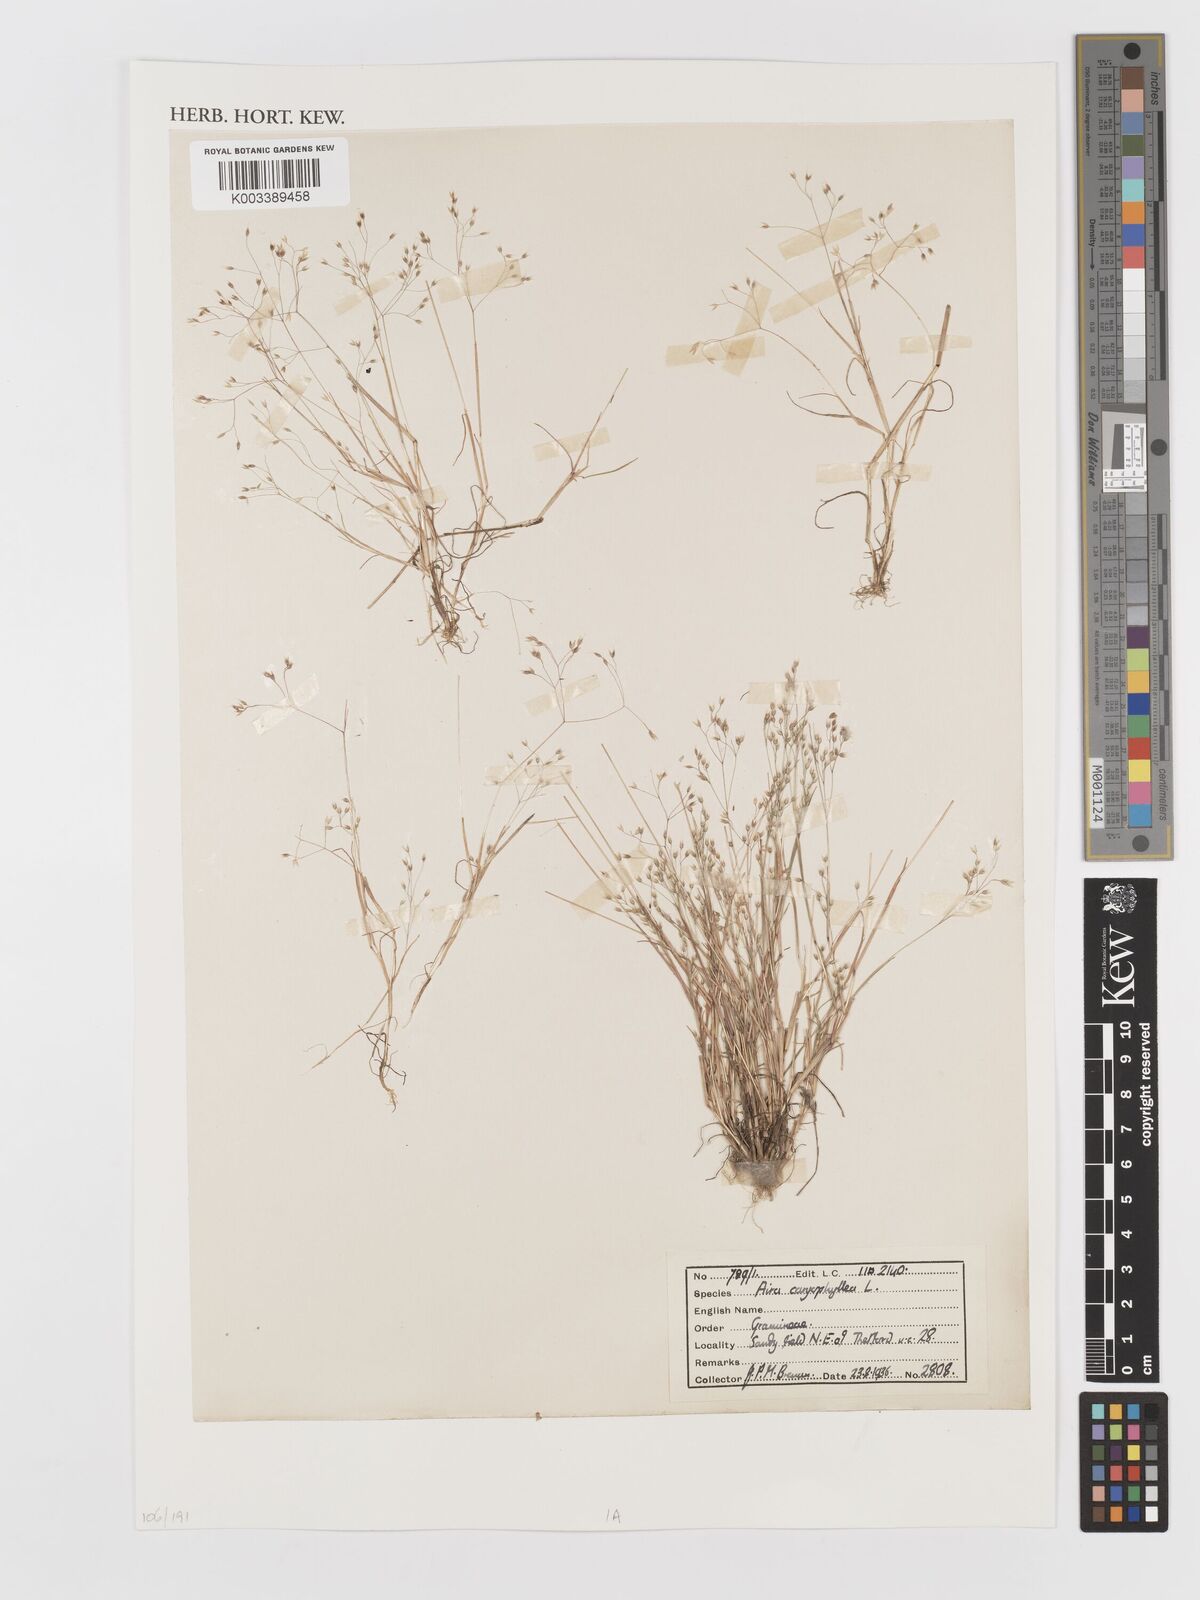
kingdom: Plantae
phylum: Tracheophyta
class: Liliopsida
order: Poales
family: Poaceae
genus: Aira
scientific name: Aira caryophyllea
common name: Silver hairgrass
